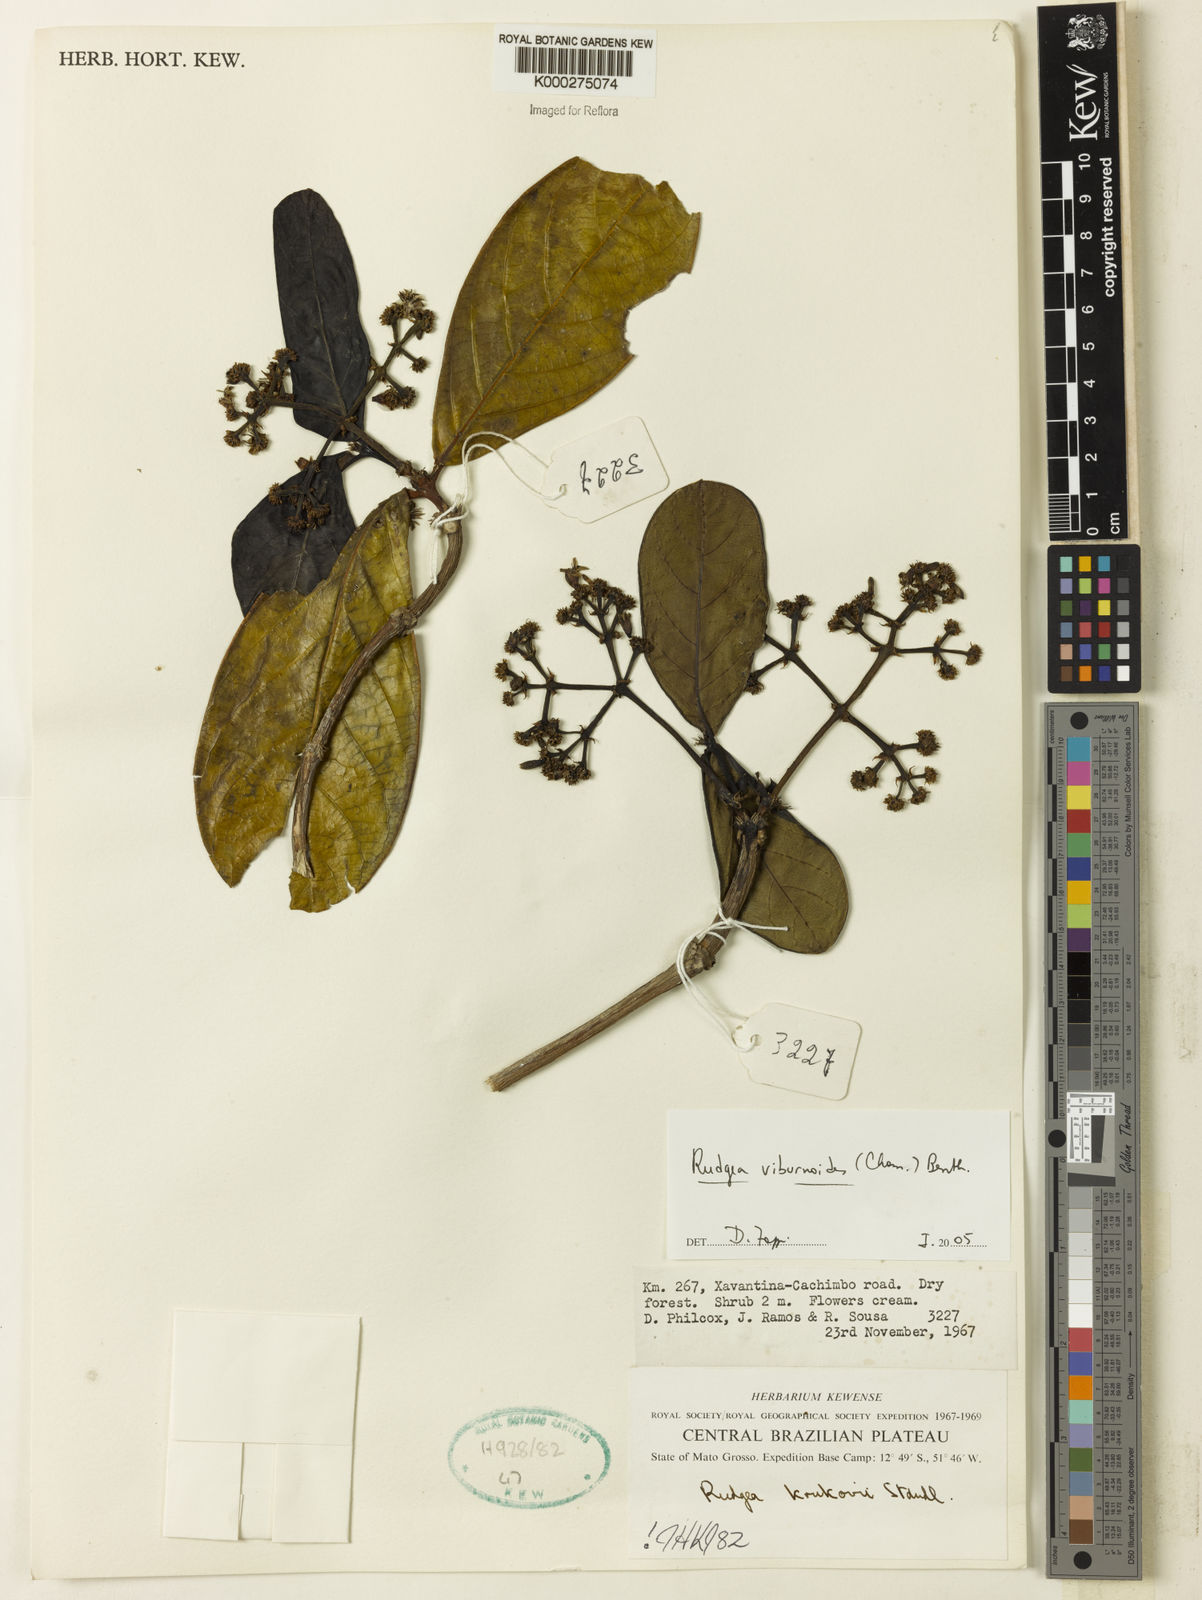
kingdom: Plantae
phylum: Tracheophyta
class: Magnoliopsida
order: Gentianales
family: Rubiaceae
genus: Rudgea
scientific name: Rudgea viburnoides
